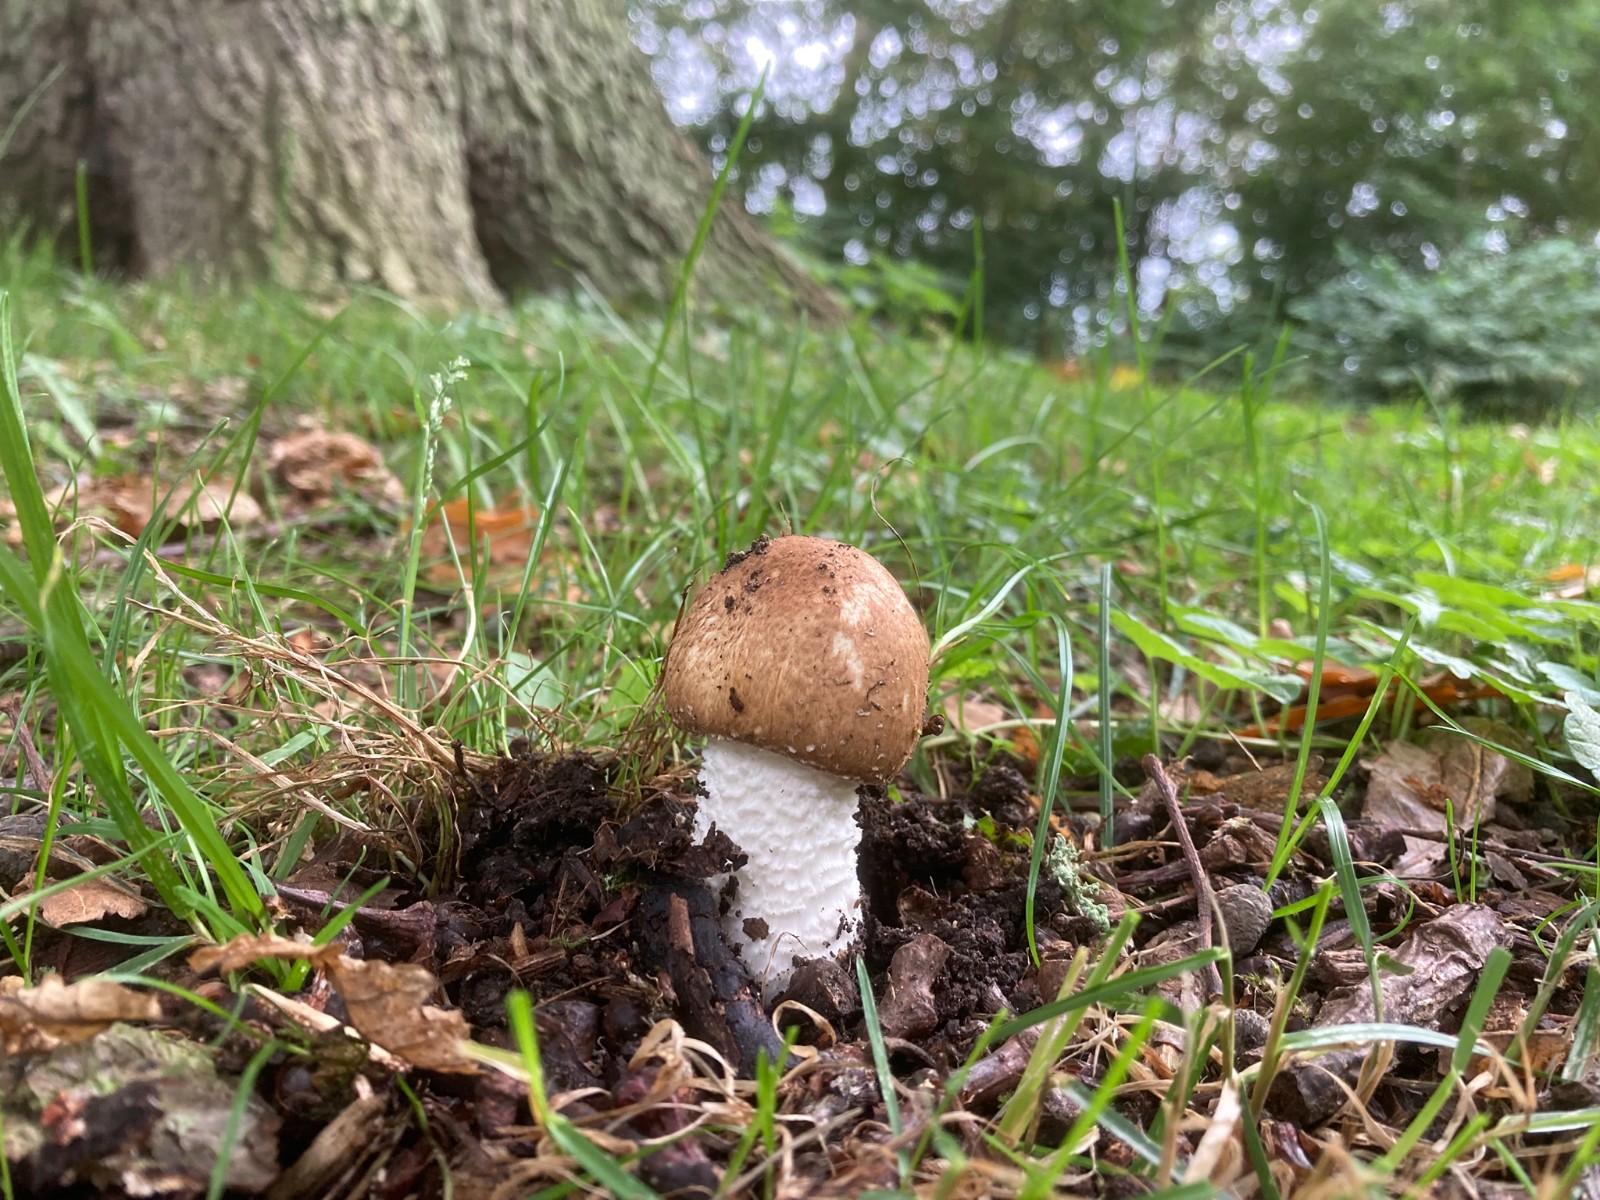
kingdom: Fungi
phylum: Basidiomycota
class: Agaricomycetes
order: Agaricales
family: Agaricaceae
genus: Agaricus
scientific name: Agaricus augustus
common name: prægtig champignon
